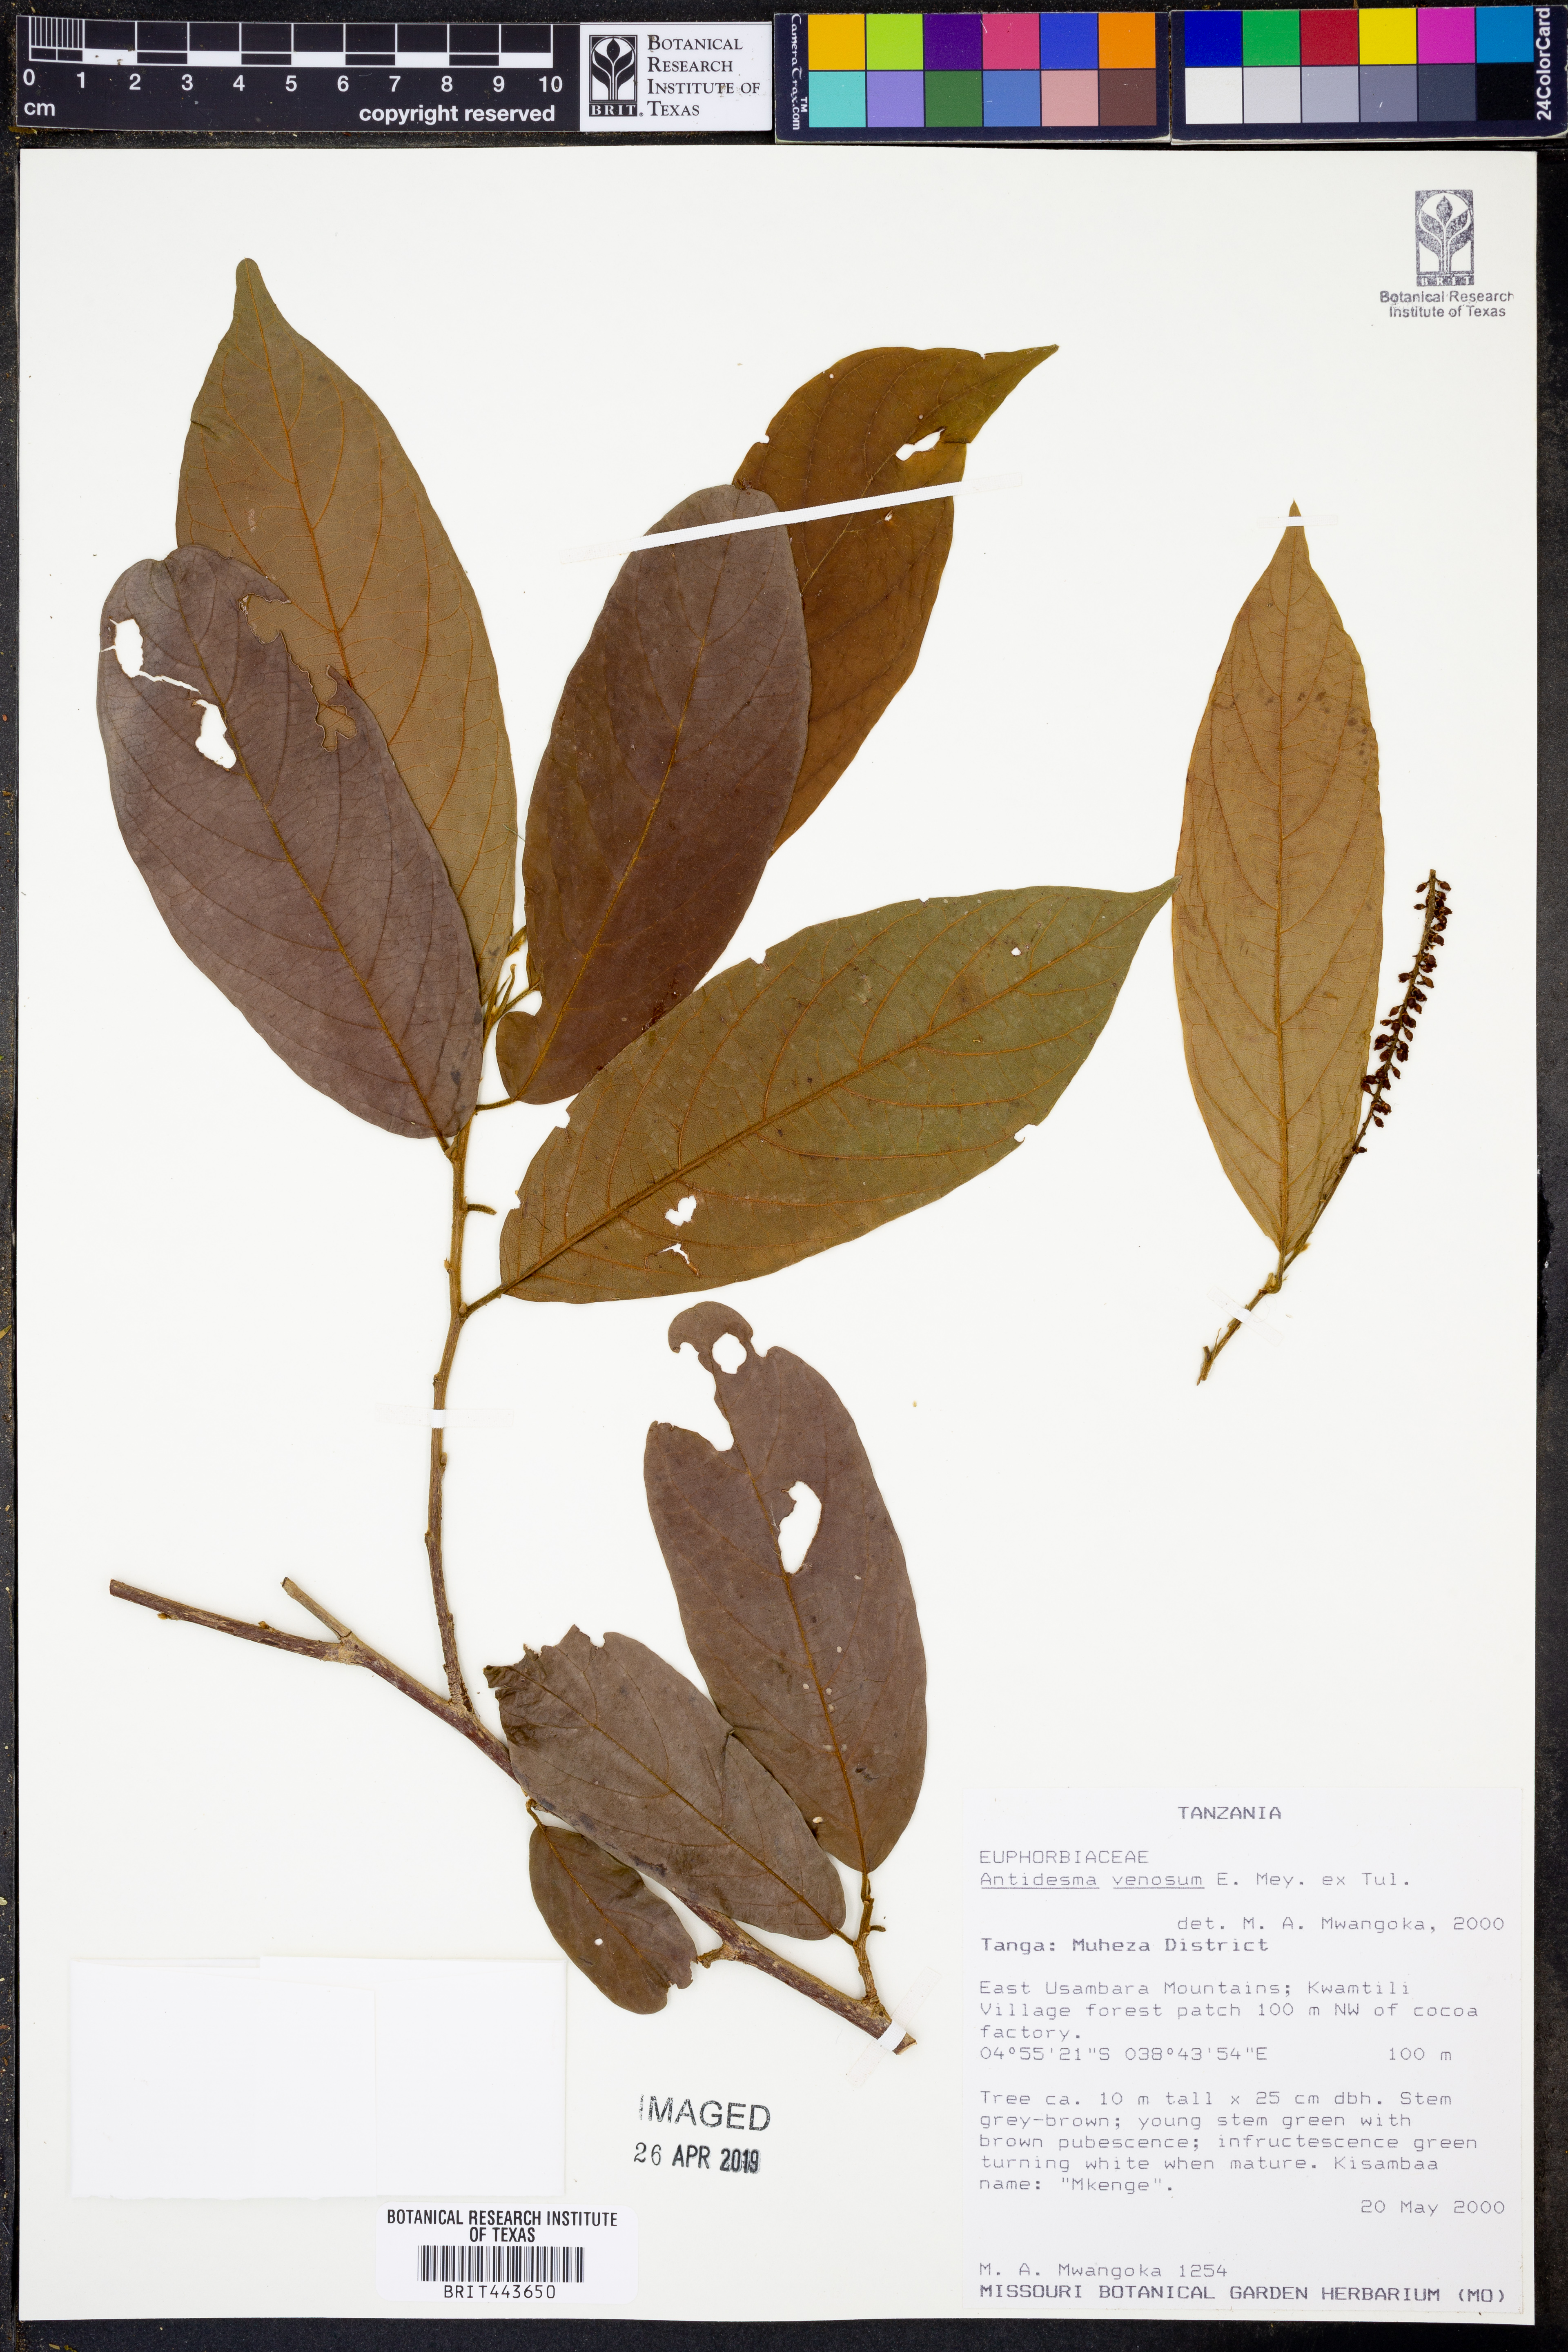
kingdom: Plantae
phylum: Tracheophyta
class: Magnoliopsida
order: Malpighiales
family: Phyllanthaceae
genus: Antidesma
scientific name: Antidesma venosum
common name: Tassel-berry
